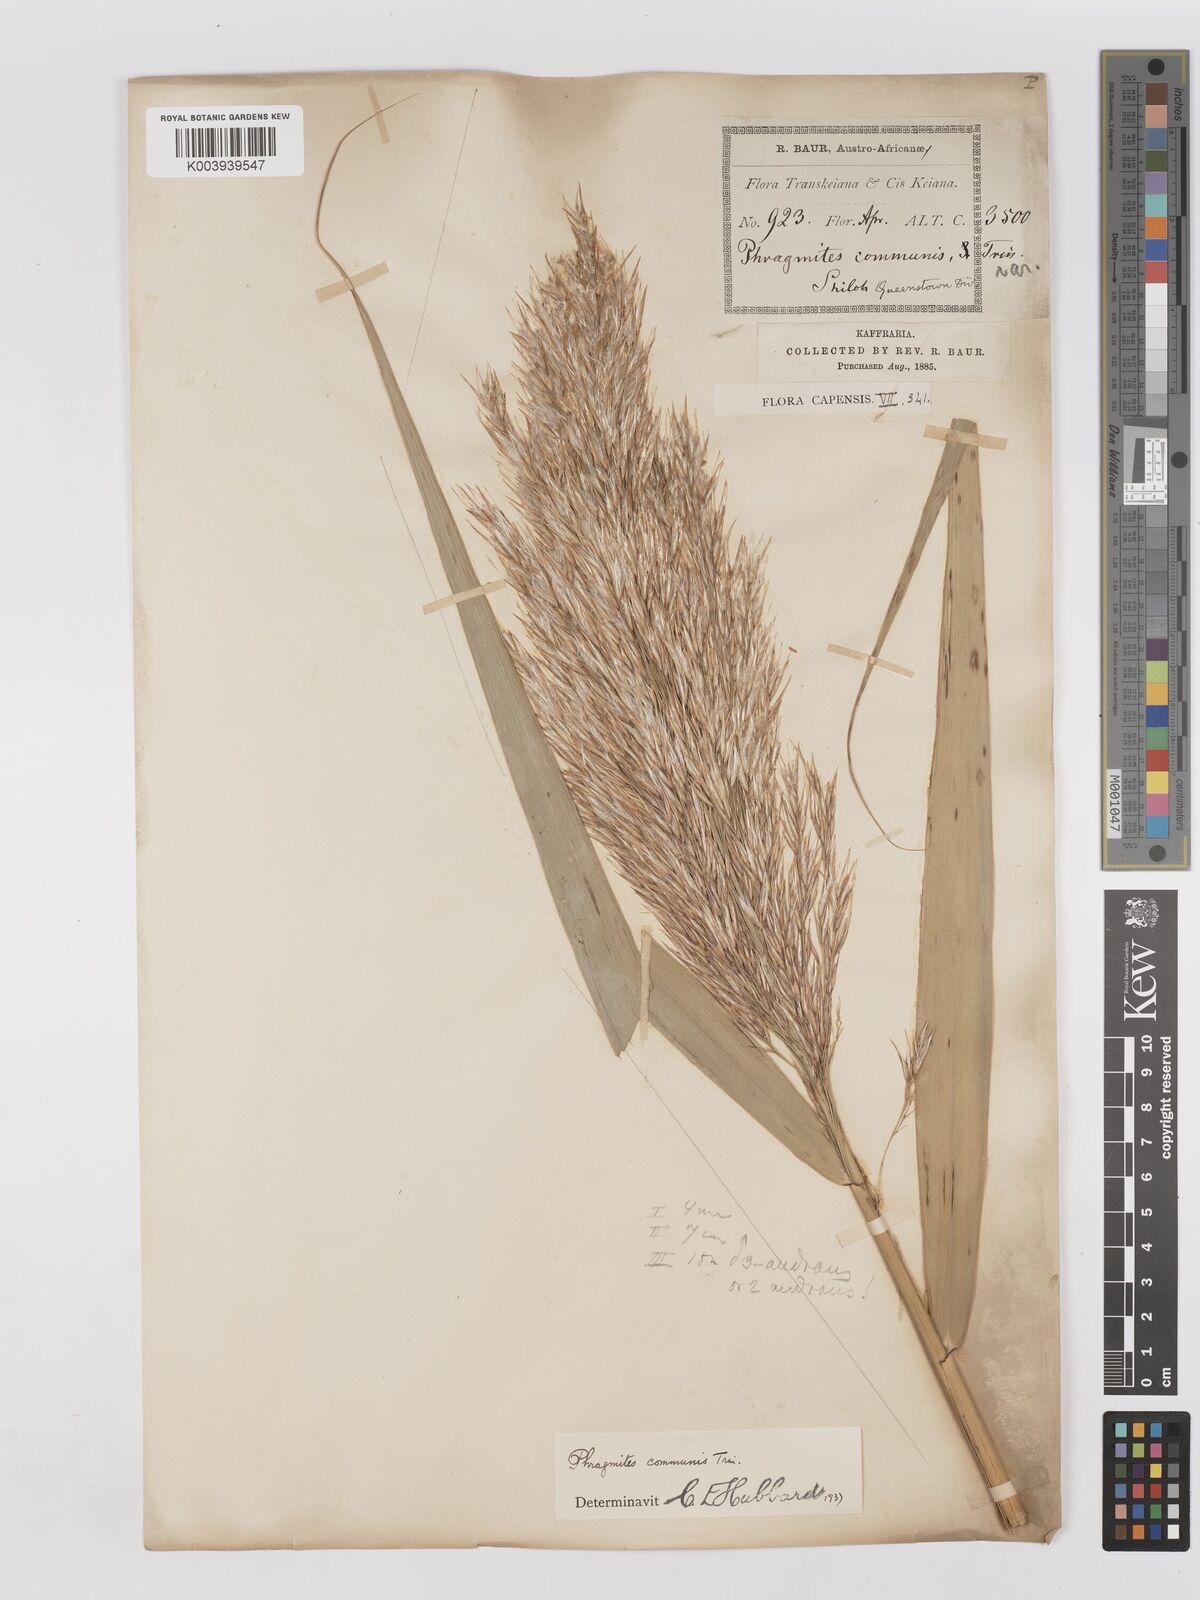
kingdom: Plantae
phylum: Tracheophyta
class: Liliopsida
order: Poales
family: Poaceae
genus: Phragmites
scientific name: Phragmites australis
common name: Common reed
